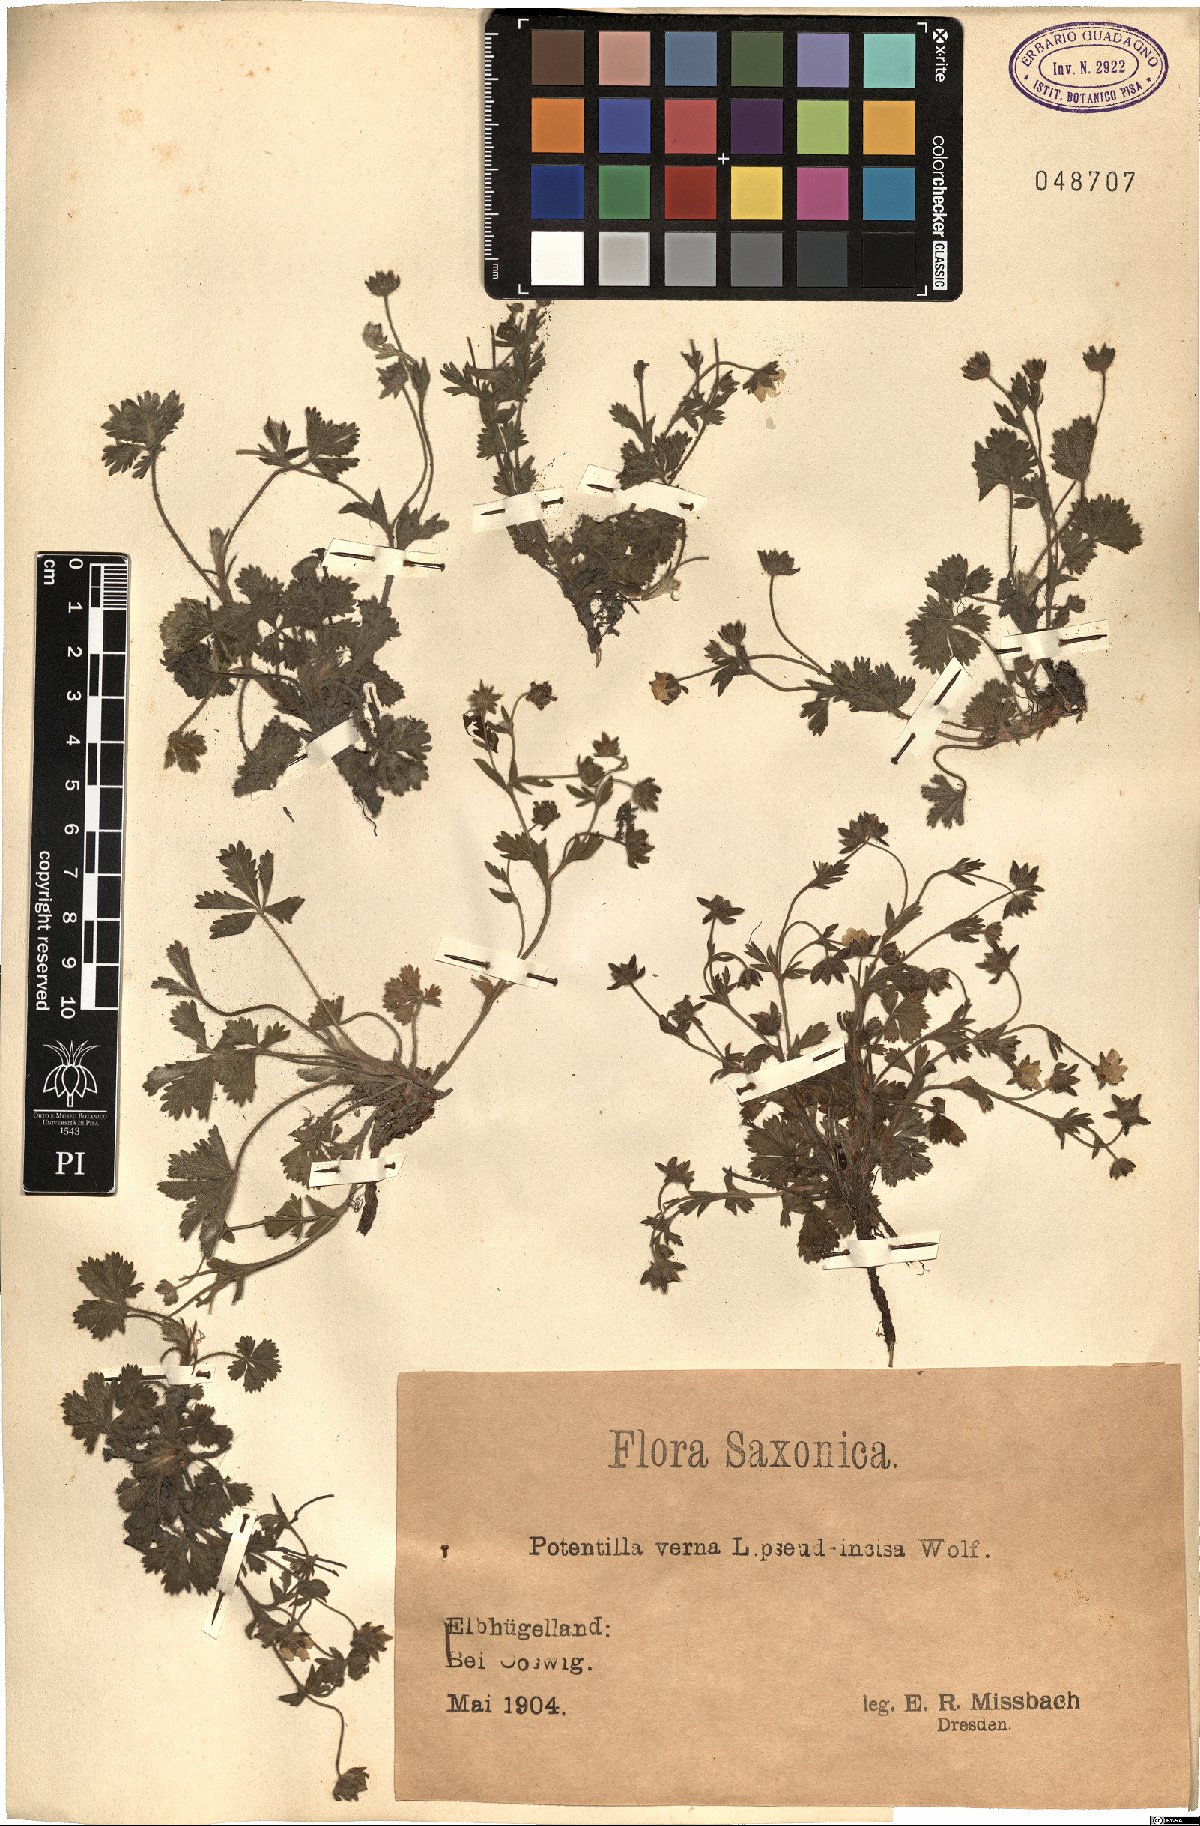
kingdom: Plantae
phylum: Tracheophyta
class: Magnoliopsida
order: Rosales
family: Rosaceae
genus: Potentilla
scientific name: Potentilla verna
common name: Spring cinquefoil
